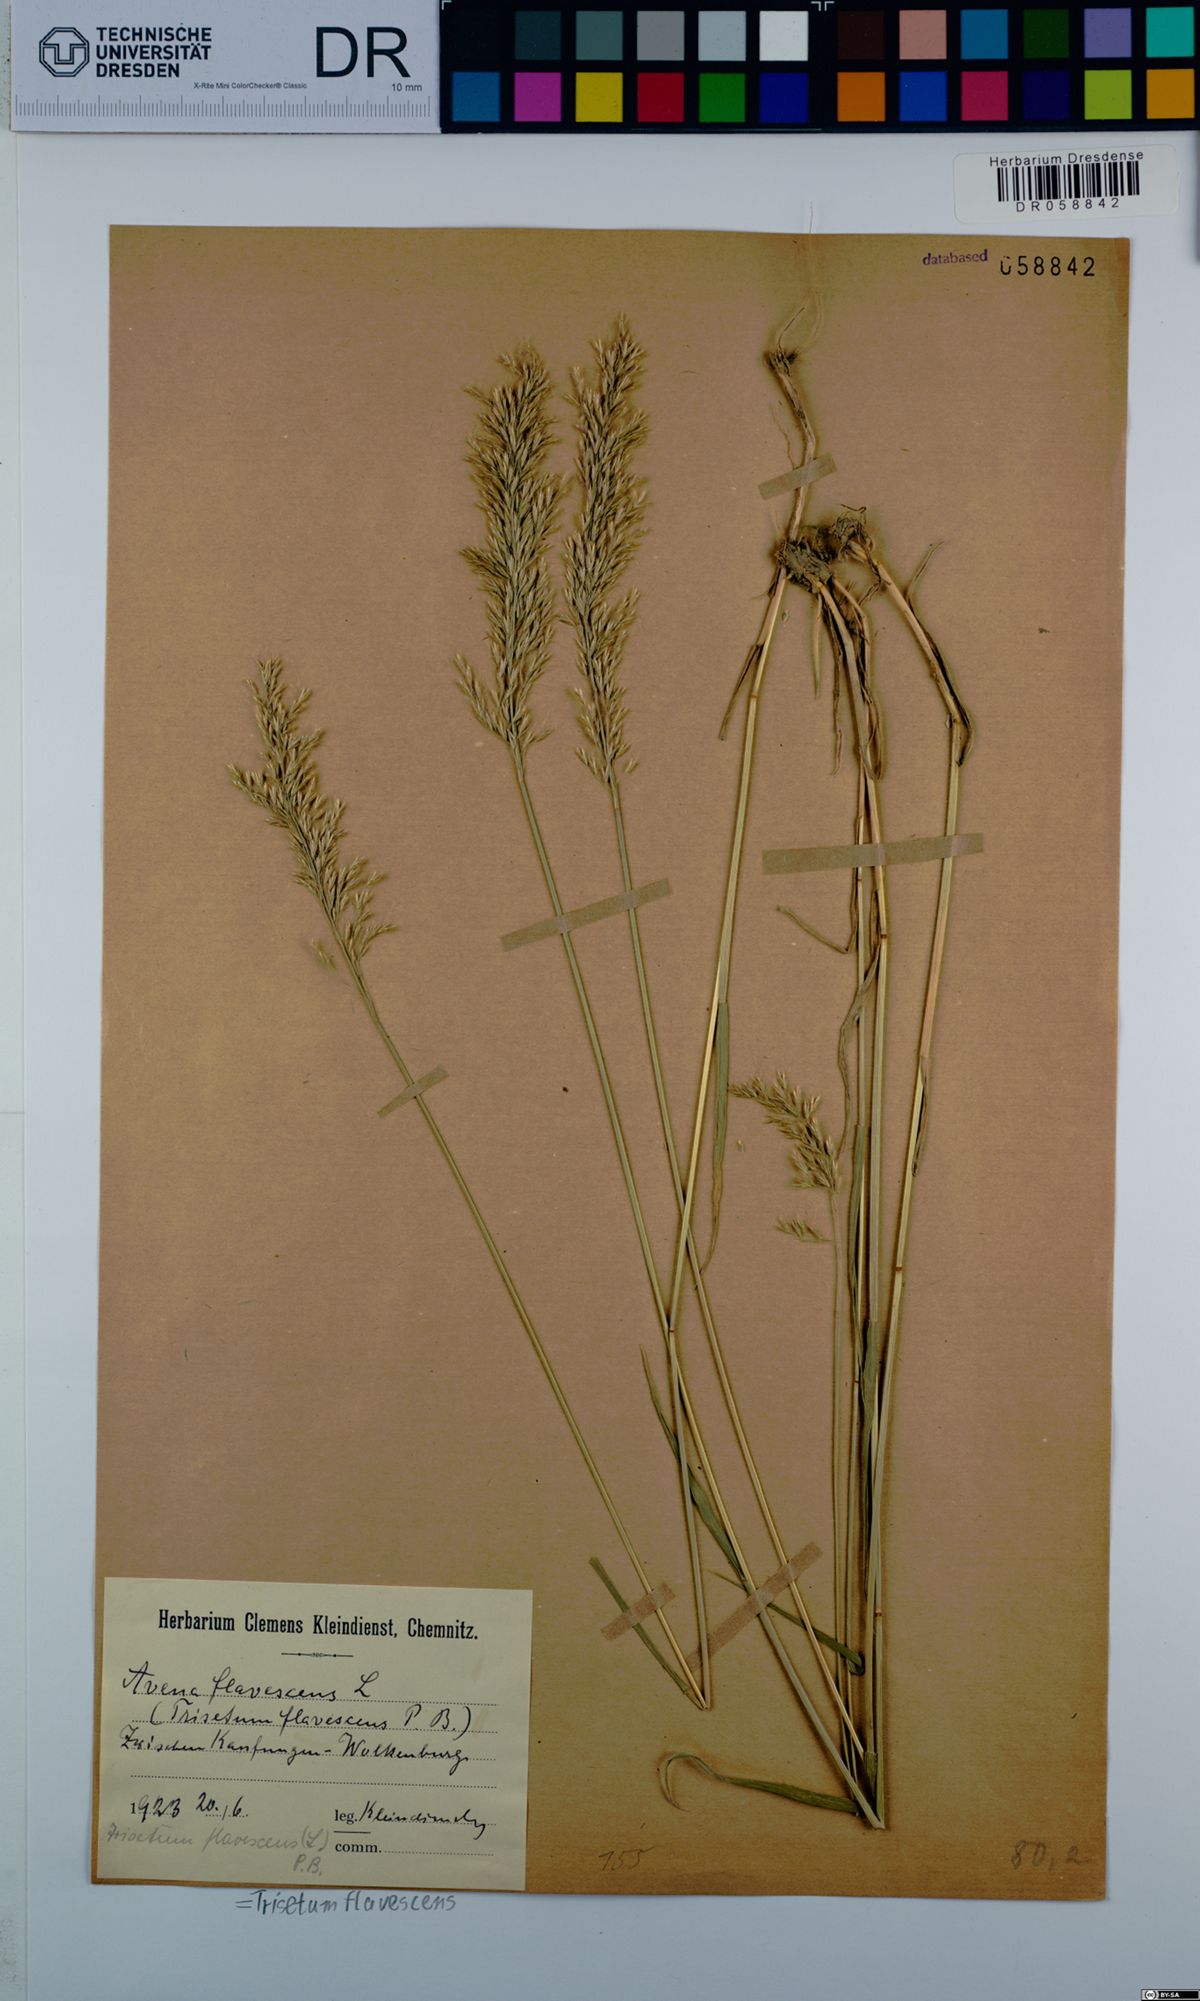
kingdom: Plantae
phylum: Tracheophyta
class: Liliopsida
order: Poales
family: Poaceae
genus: Trisetum
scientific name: Trisetum flavescens
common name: Yellow oat-grass
